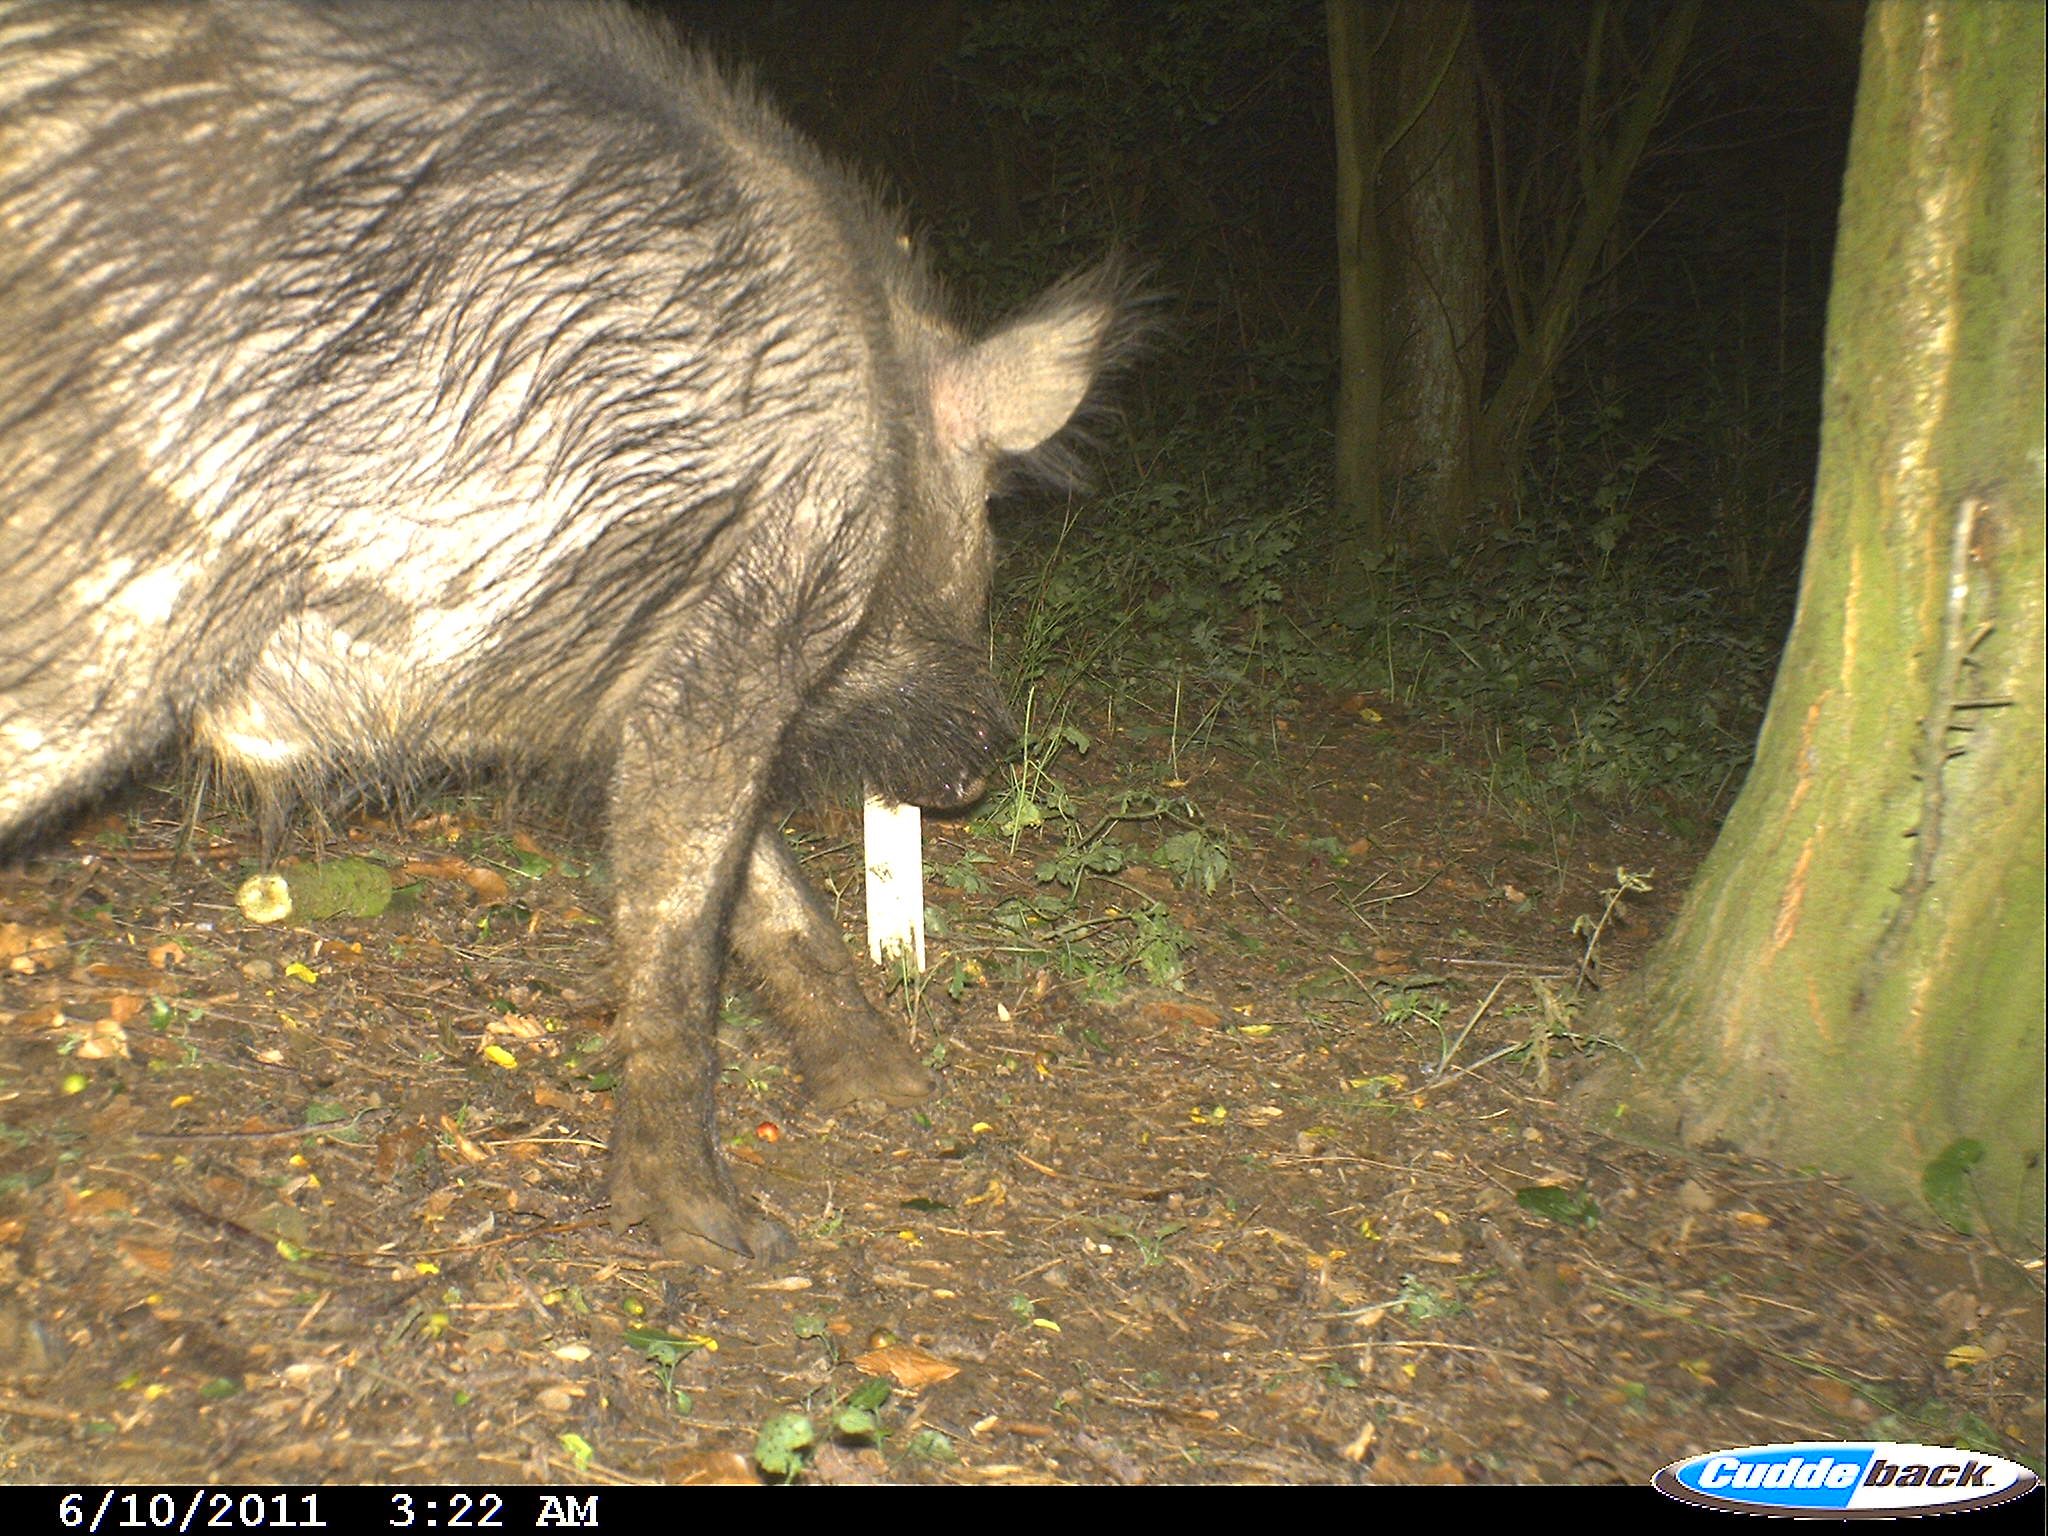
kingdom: Animalia
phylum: Chordata
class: Mammalia
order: Artiodactyla
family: Suidae
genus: Sus
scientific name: Sus scrofa
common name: Wild boar
